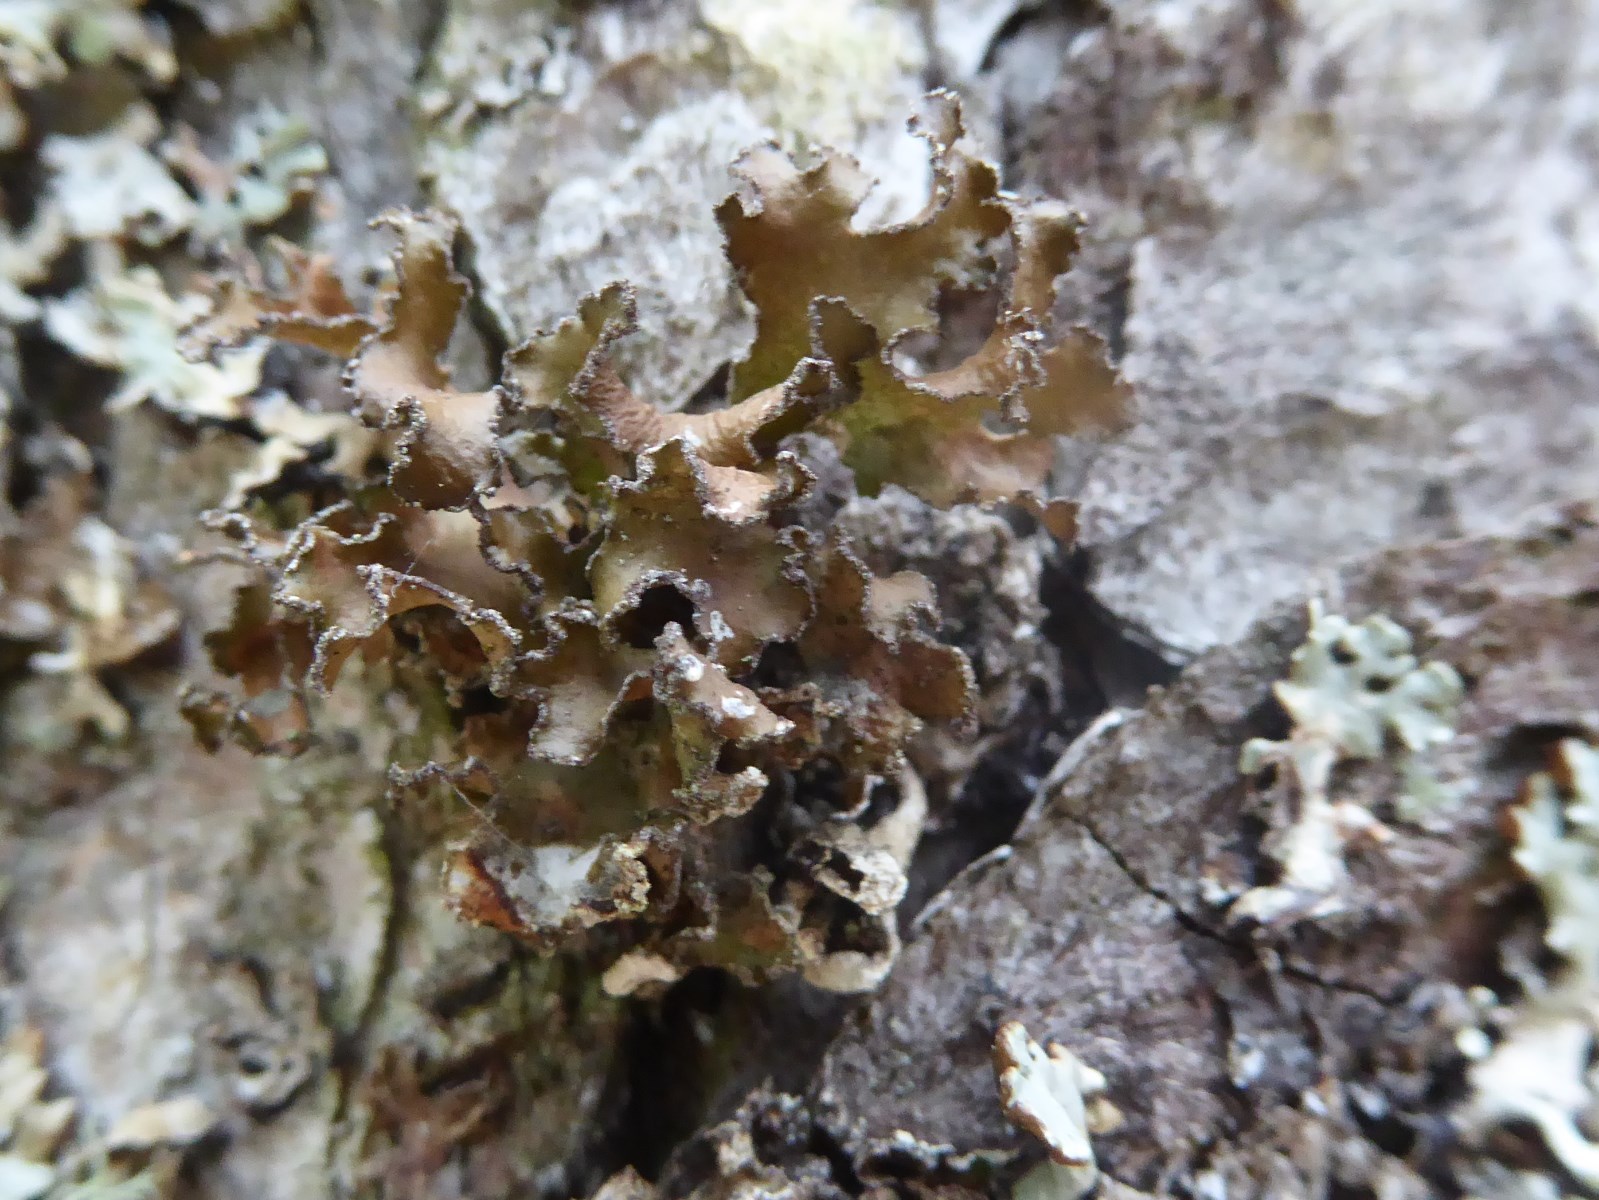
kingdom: Fungi
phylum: Ascomycota
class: Lecanoromycetes
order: Lecanorales
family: Parmeliaceae
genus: Nephromopsis
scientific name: Nephromopsis chlorophylla
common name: olivenbrun kruslav
